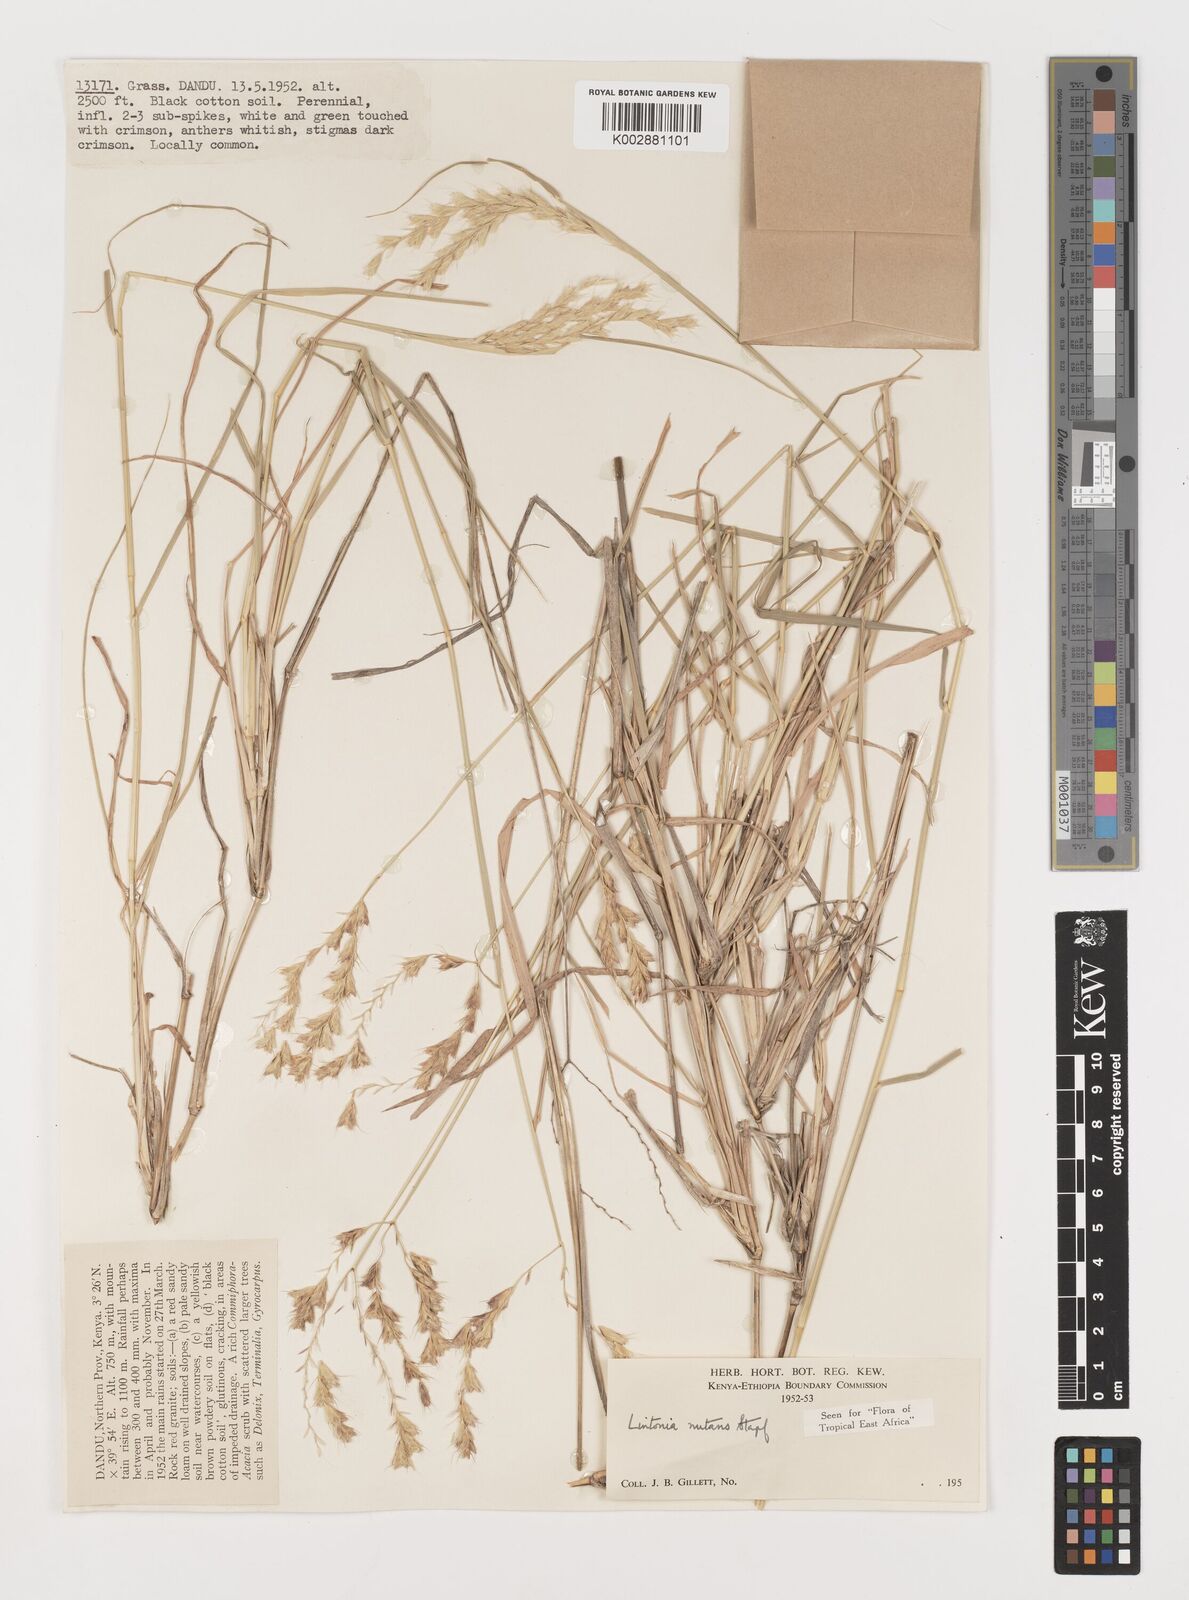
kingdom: Plantae
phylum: Tracheophyta
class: Liliopsida
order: Poales
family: Poaceae
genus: Chloris
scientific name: Chloris nutans
